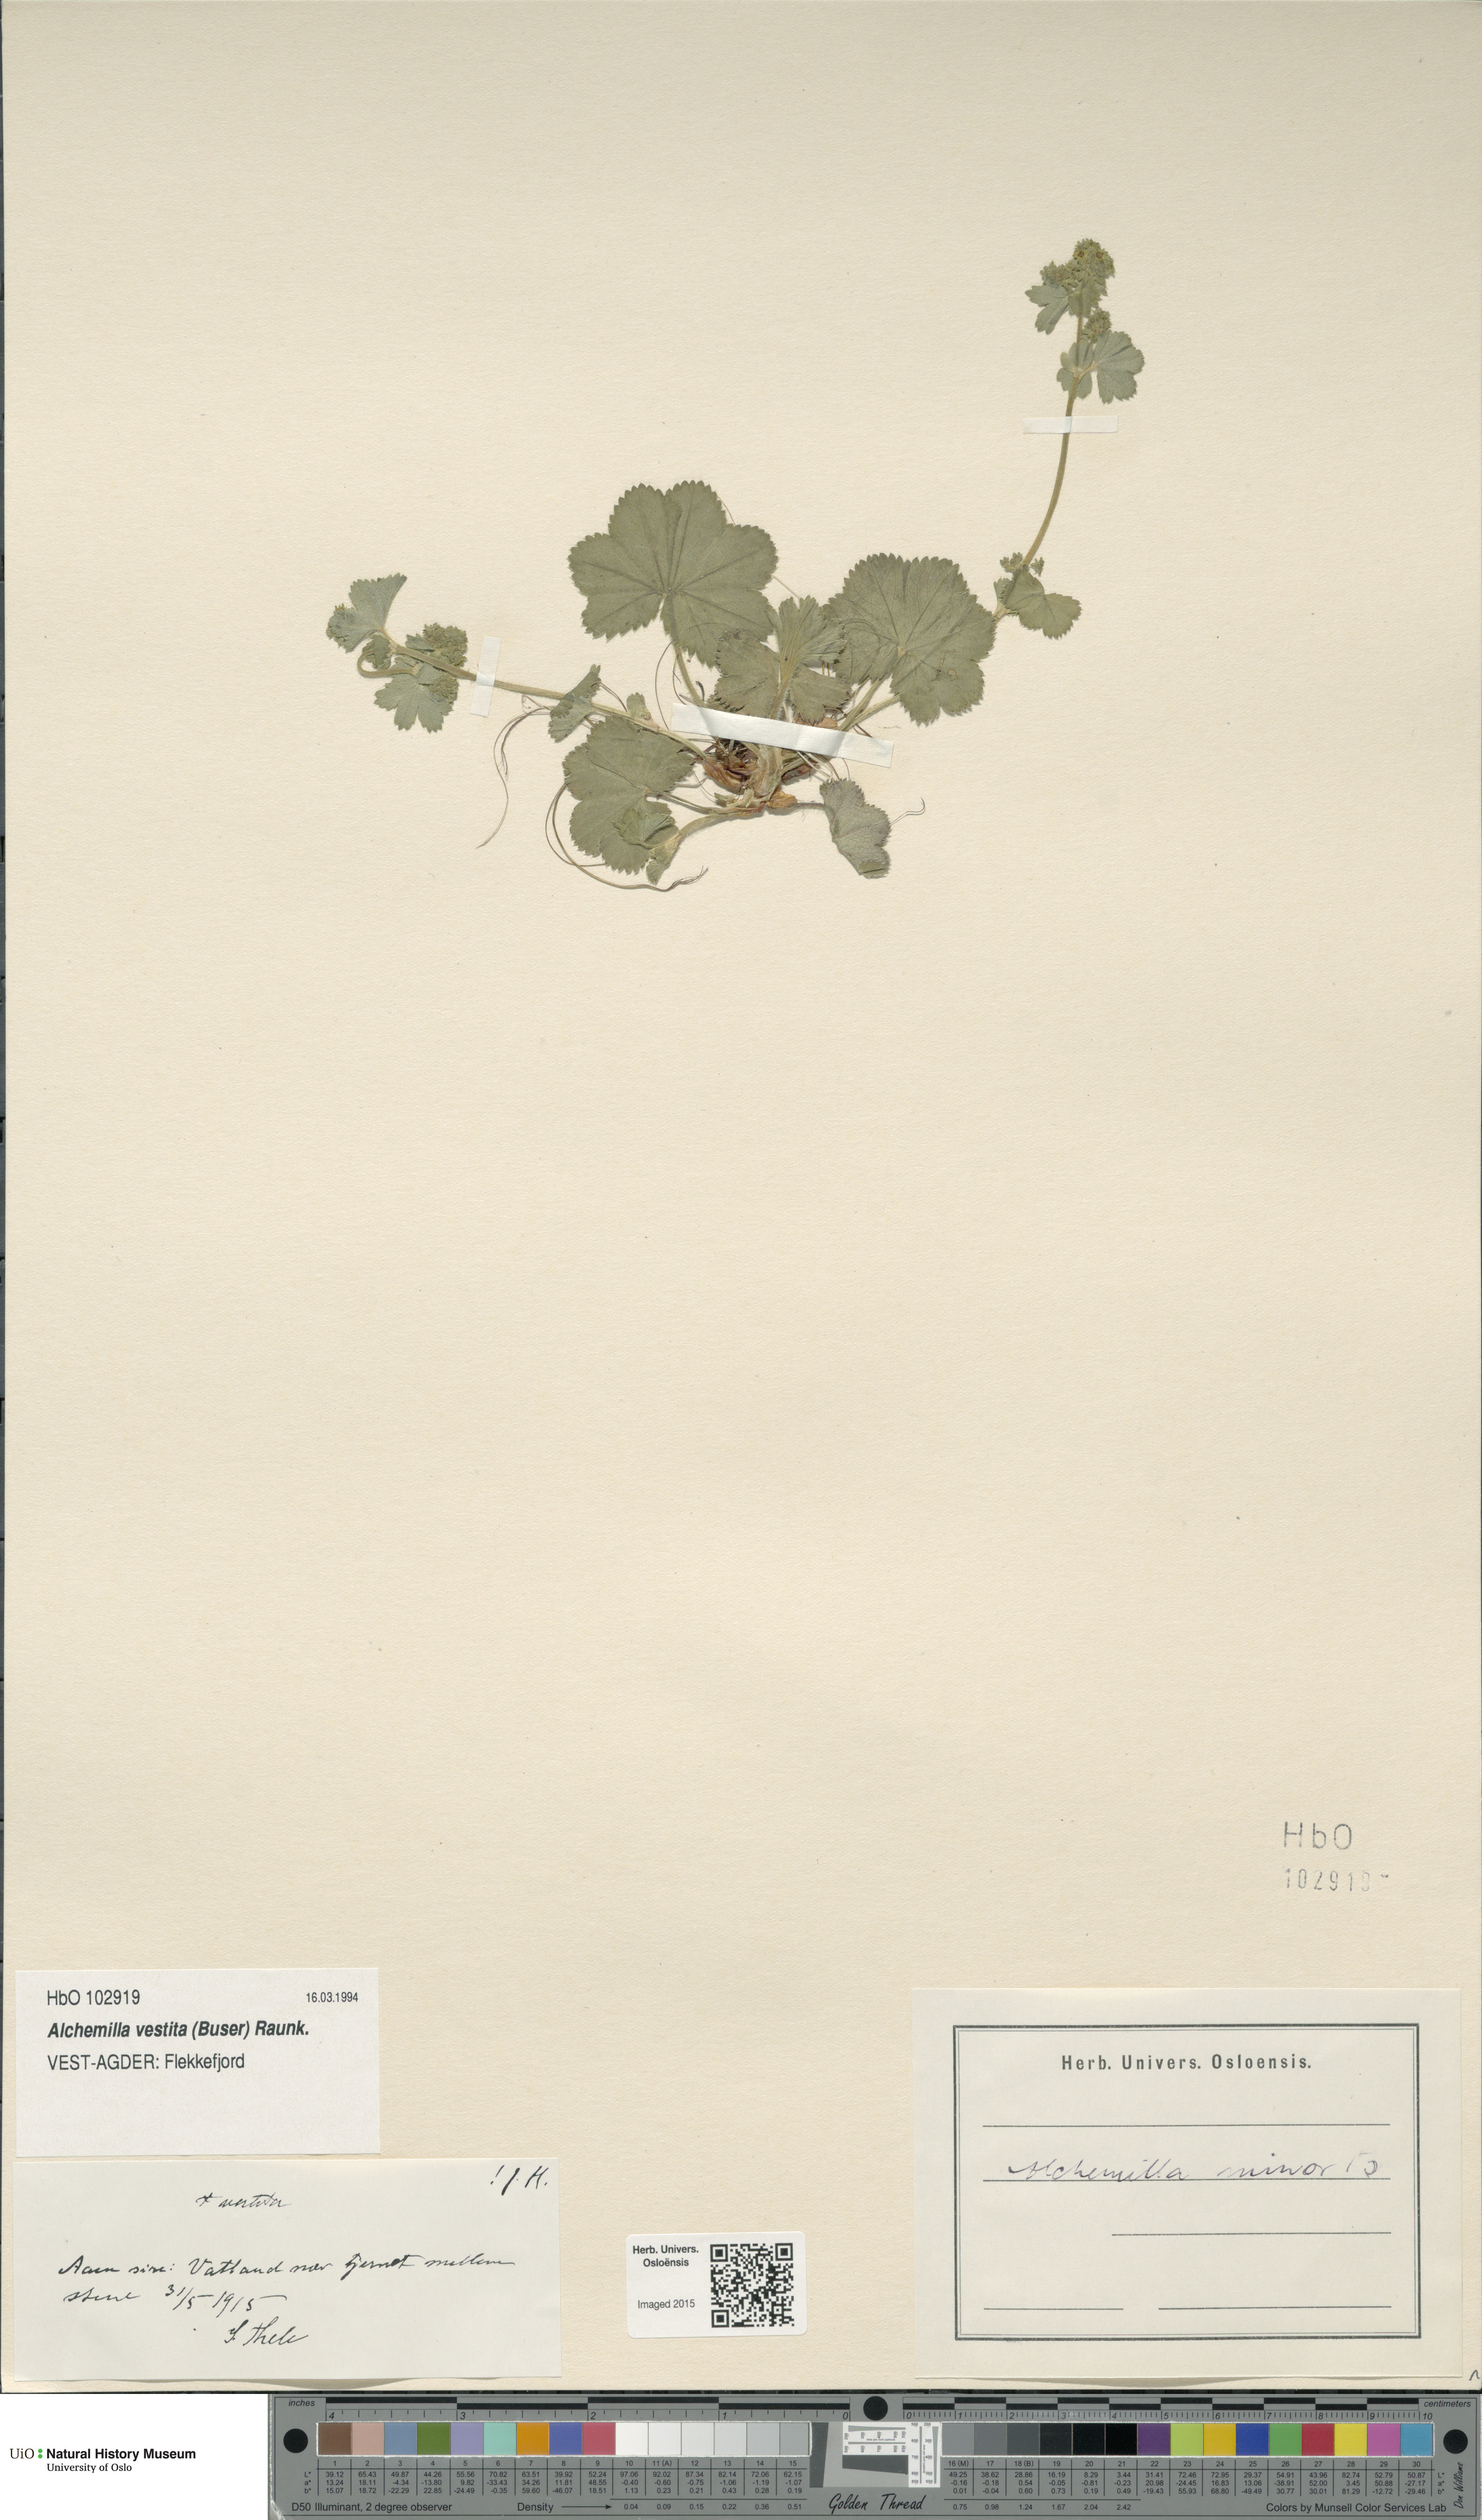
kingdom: Plantae
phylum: Tracheophyta
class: Magnoliopsida
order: Rosales
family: Rosaceae
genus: Alchemilla
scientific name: Alchemilla filicaulis
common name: Hairy lady's-mantle
